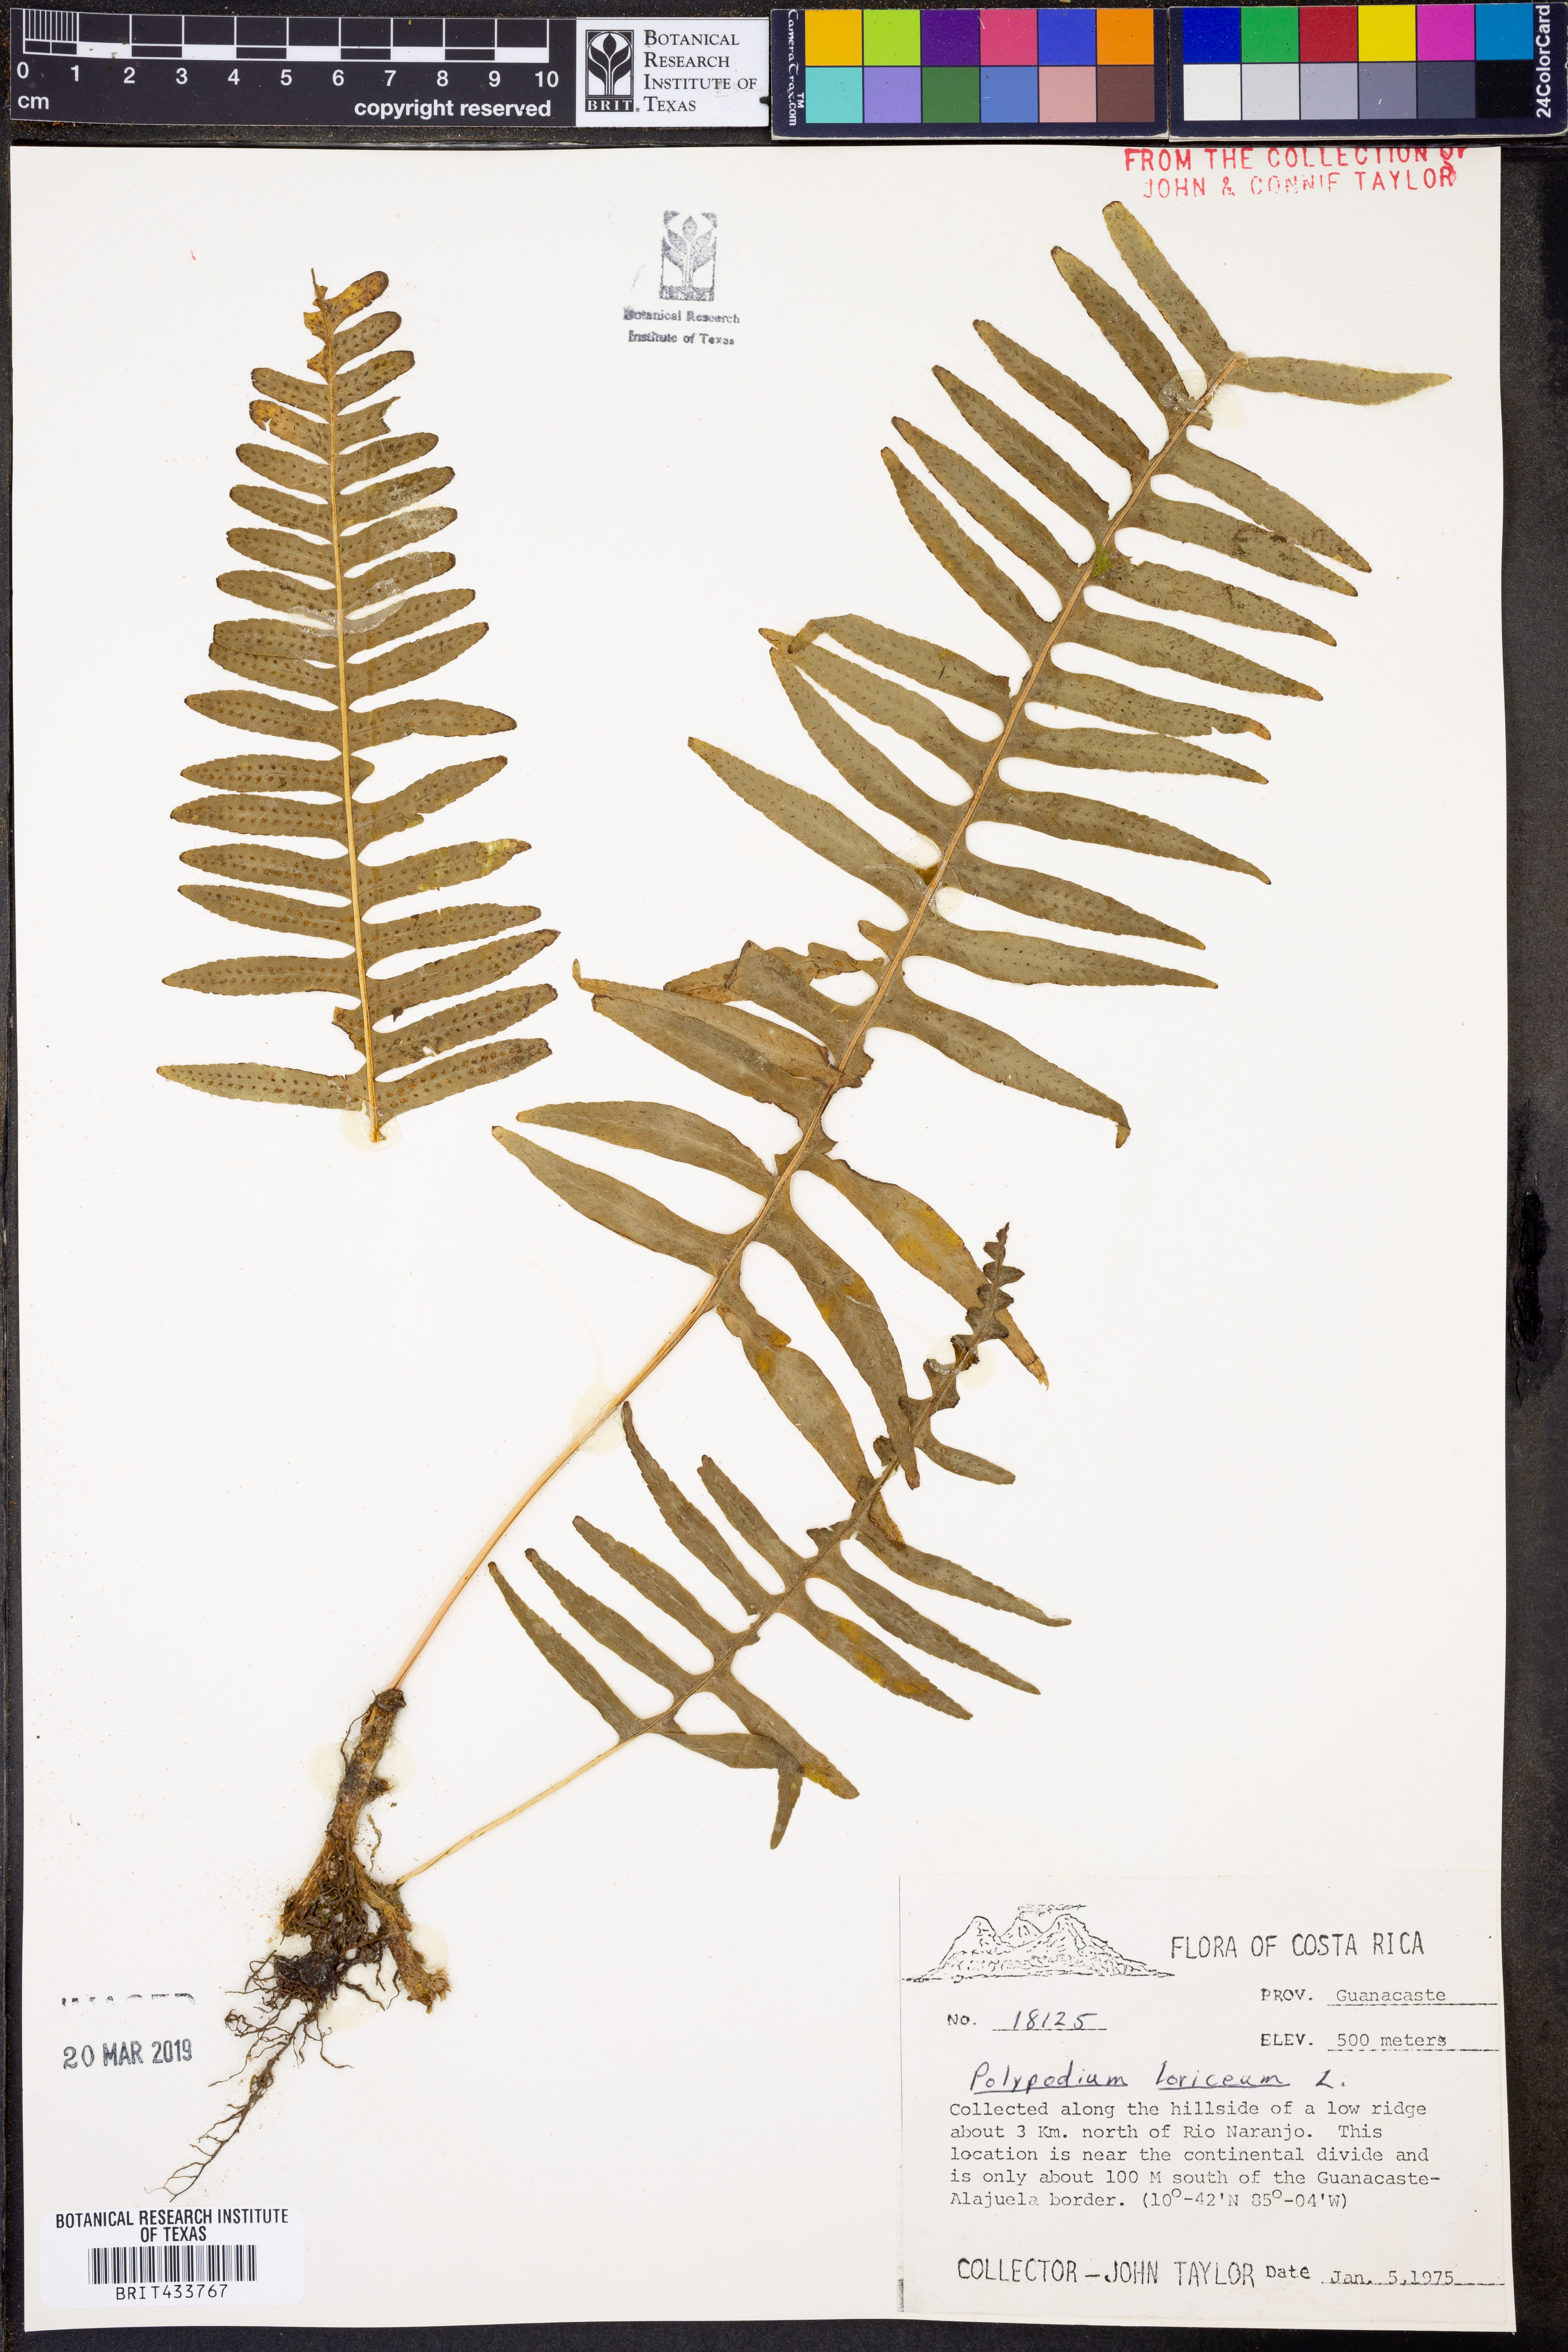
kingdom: Plantae
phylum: Tracheophyta
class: Polypodiopsida
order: Polypodiales
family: Polypodiaceae
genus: Serpocaulon
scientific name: Serpocaulon loriceum
